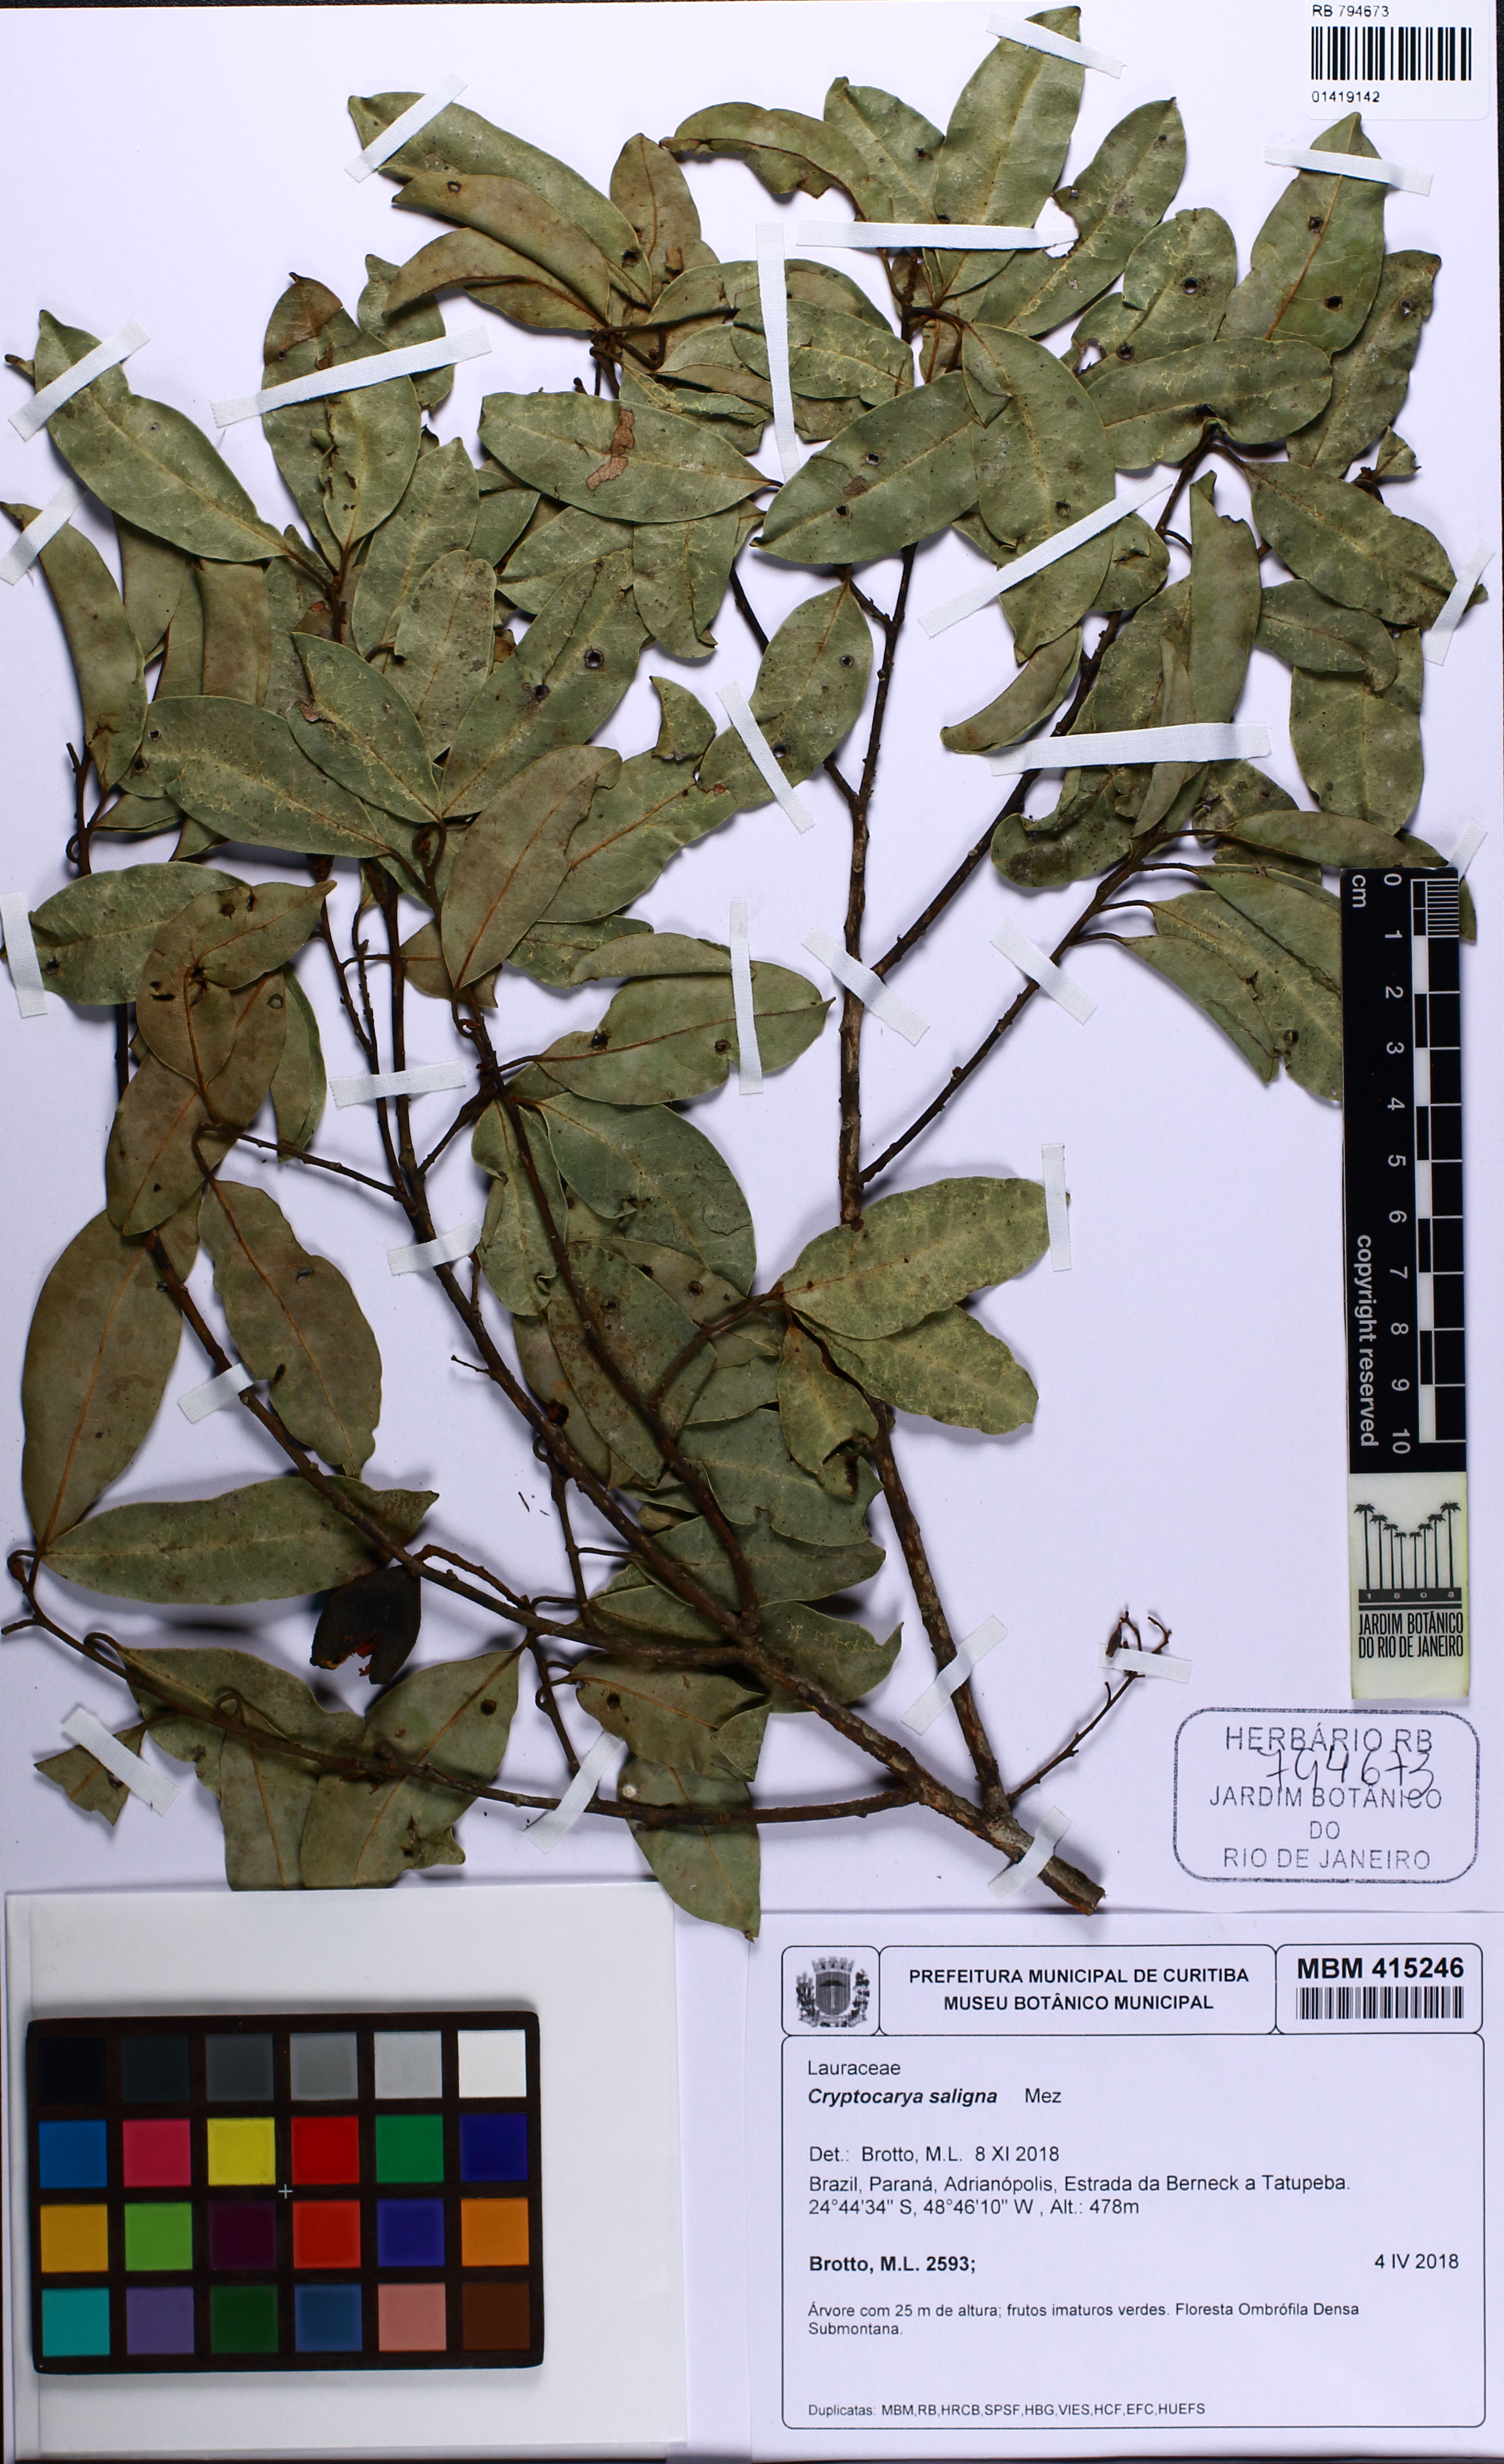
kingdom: Plantae
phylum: Tracheophyta
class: Magnoliopsida
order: Laurales
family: Lauraceae
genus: Cryptocarya
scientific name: Cryptocarya saligna
